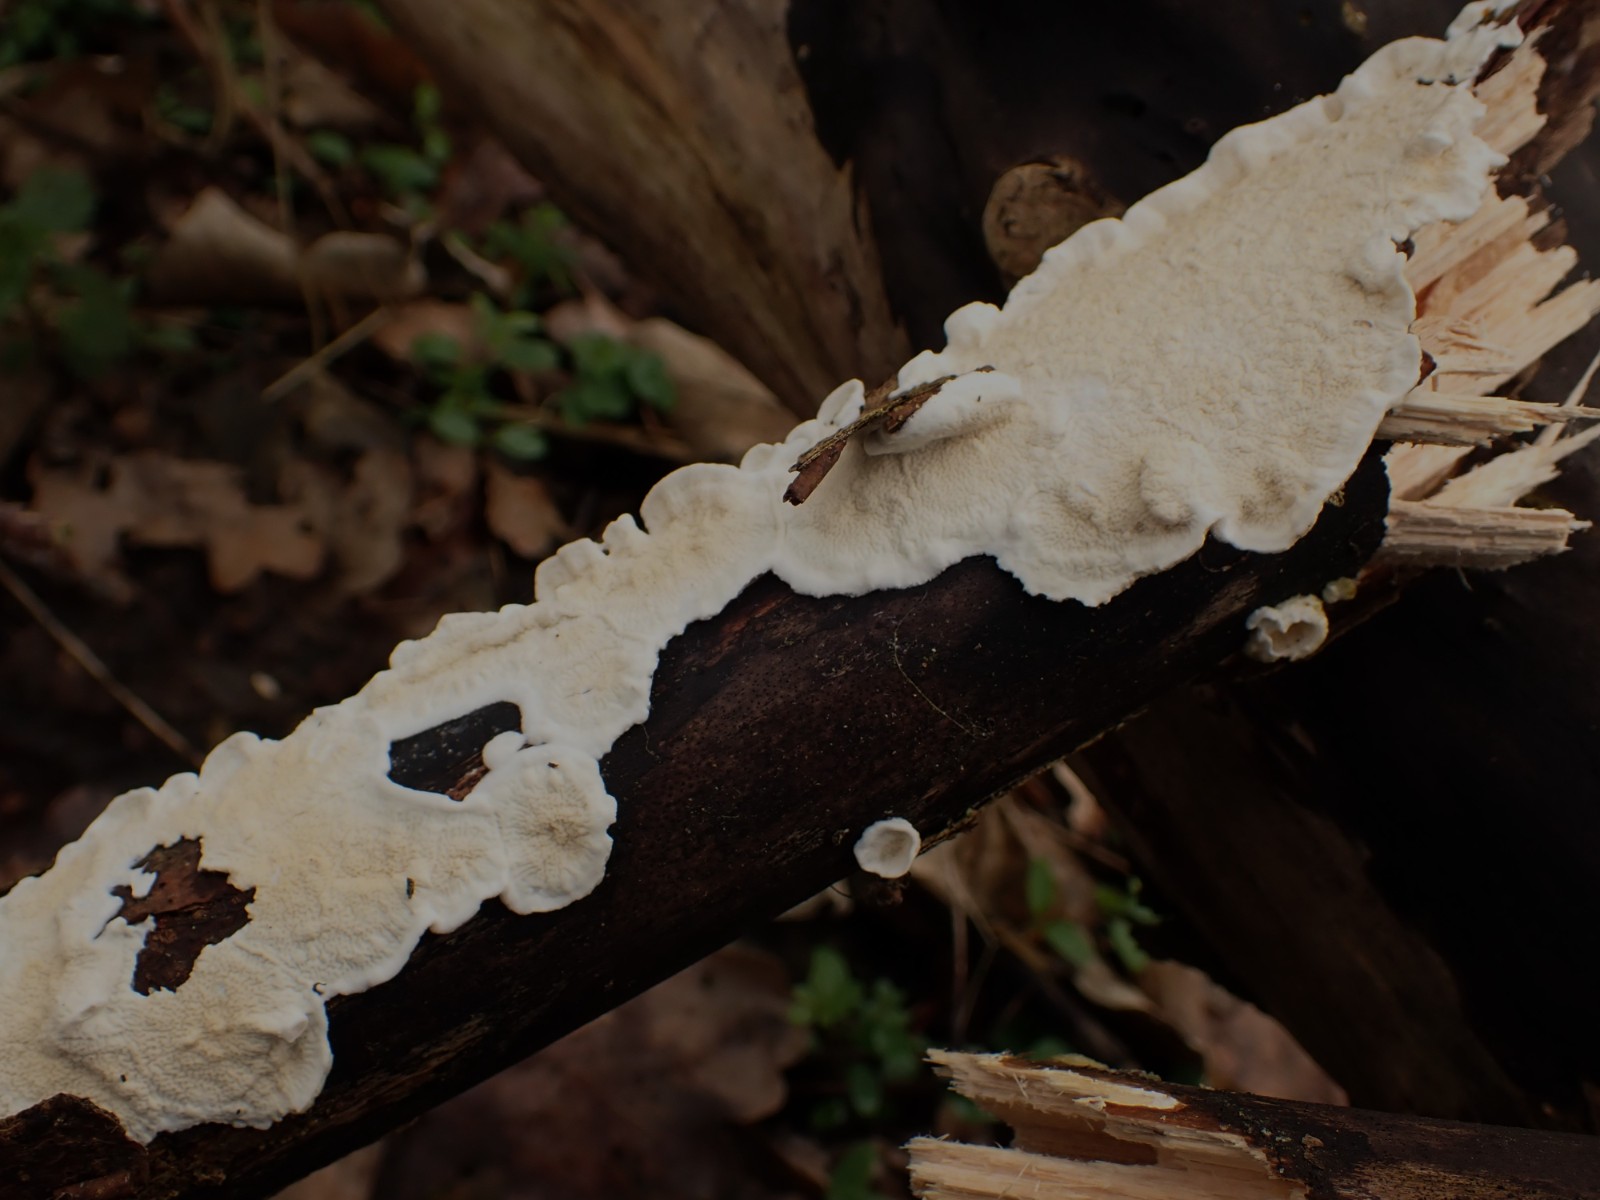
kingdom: Fungi
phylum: Basidiomycota
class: Agaricomycetes
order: Polyporales
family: Irpicaceae
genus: Byssomerulius
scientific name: Byssomerulius corium
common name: læder-åresvamp
